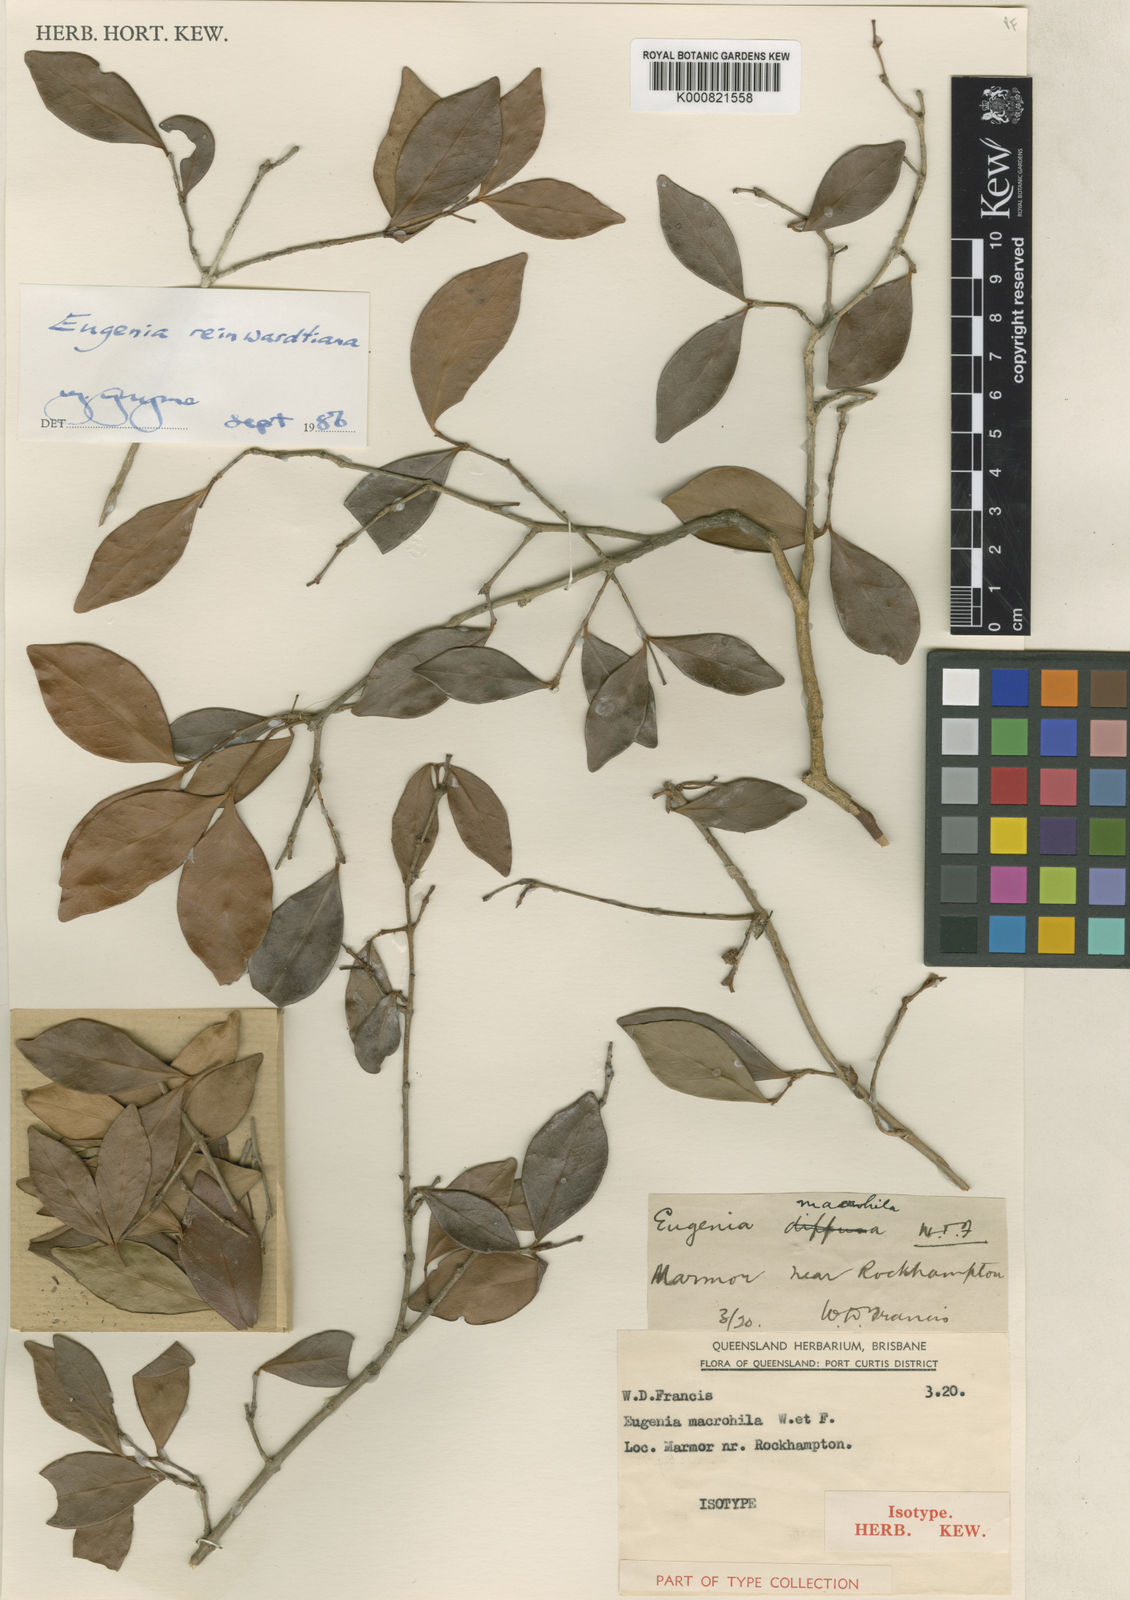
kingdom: Plantae
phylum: Tracheophyta
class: Magnoliopsida
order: Myrtales
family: Myrtaceae
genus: Eugenia
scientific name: Eugenia reinwardtiana
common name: Cedar bay-cherry
